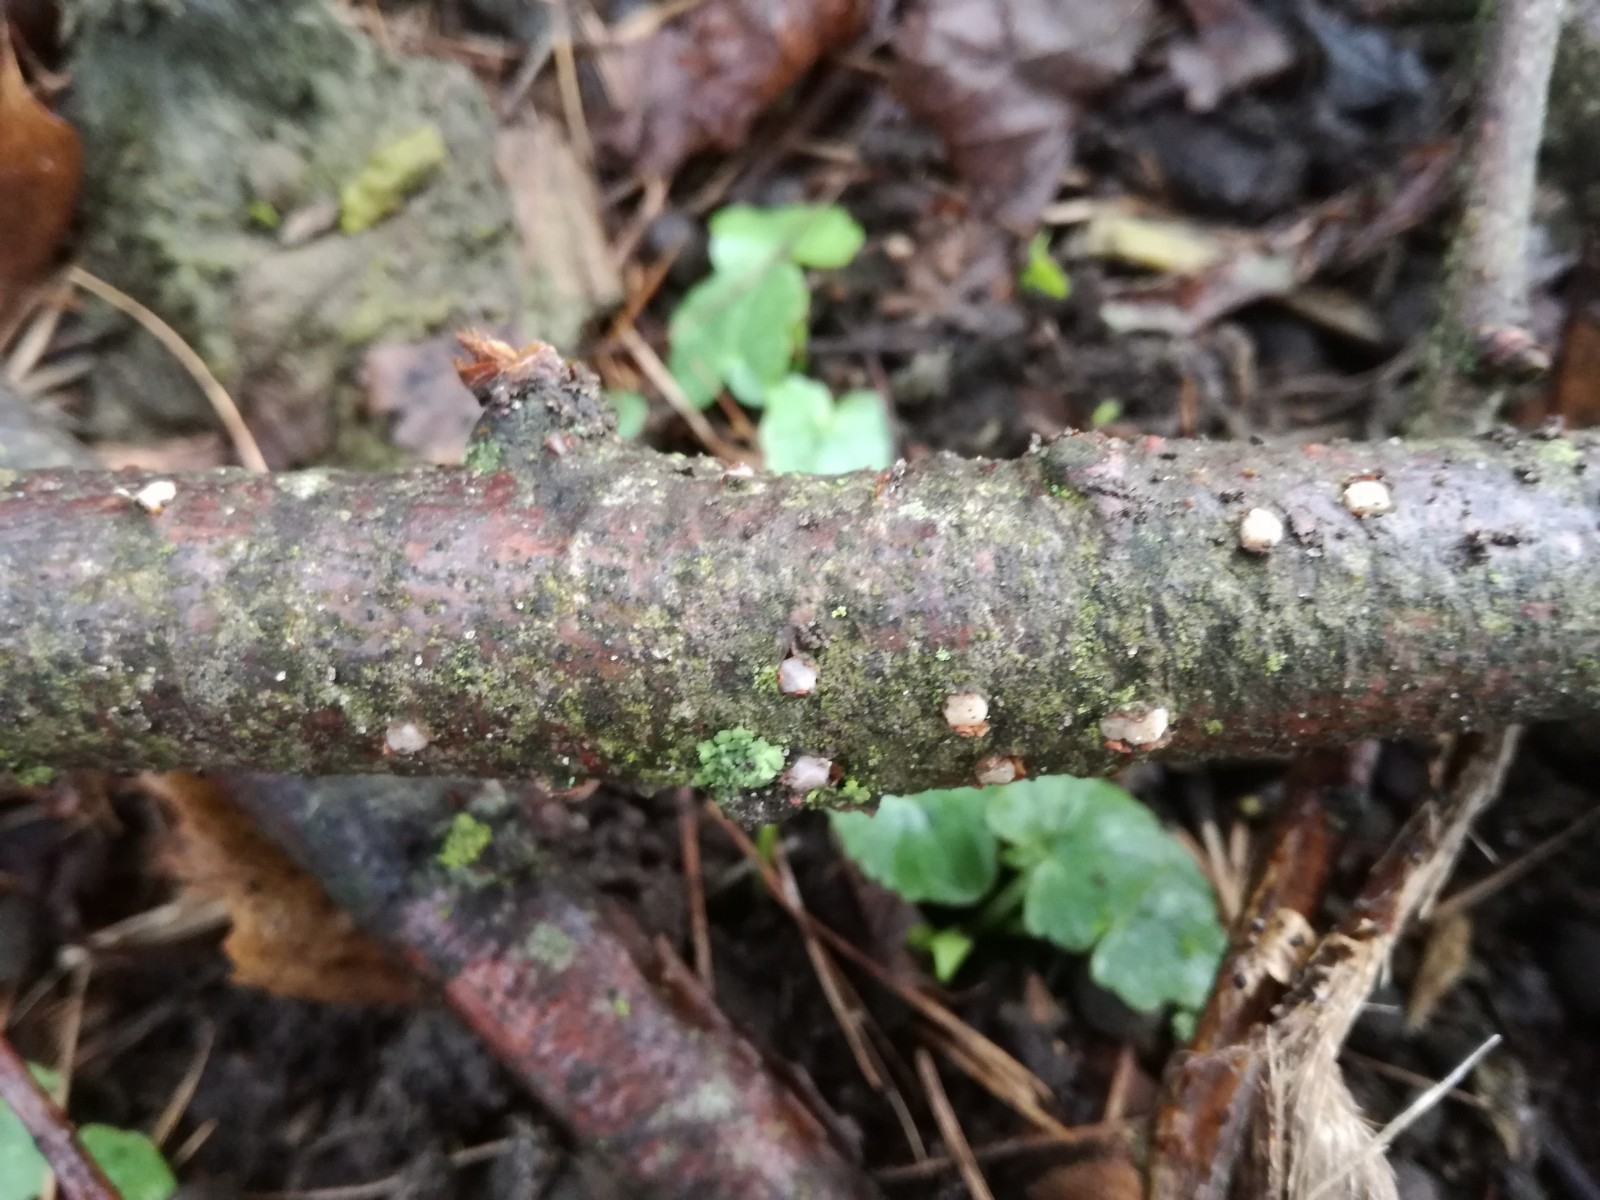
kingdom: Fungi
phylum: Basidiomycota
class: Pucciniomycetes
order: Platygloeales
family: Platygloeaceae
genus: Platygloea
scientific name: Platygloea disciformis
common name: linde-slimklat
